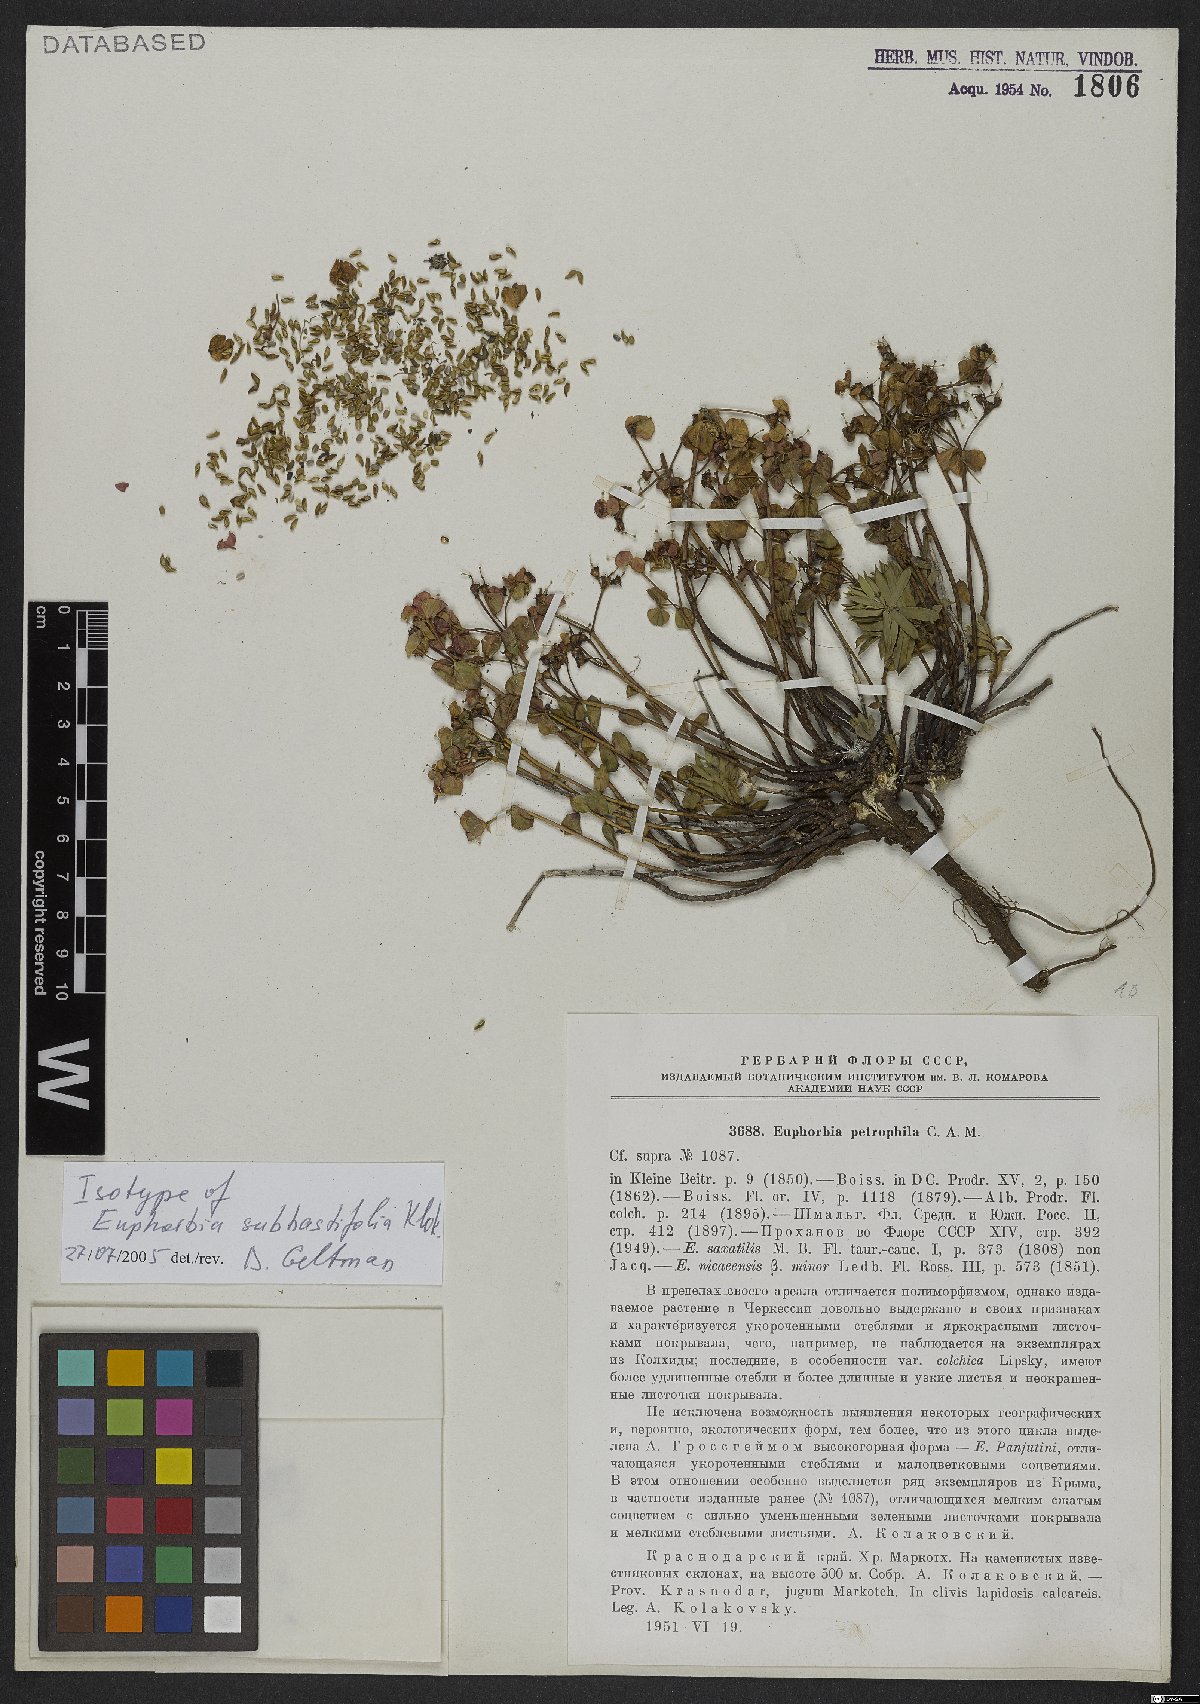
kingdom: Plantae
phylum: Tracheophyta
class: Magnoliopsida
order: Malpighiales
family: Euphorbiaceae
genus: Euphorbia
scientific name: Euphorbia petrophila
